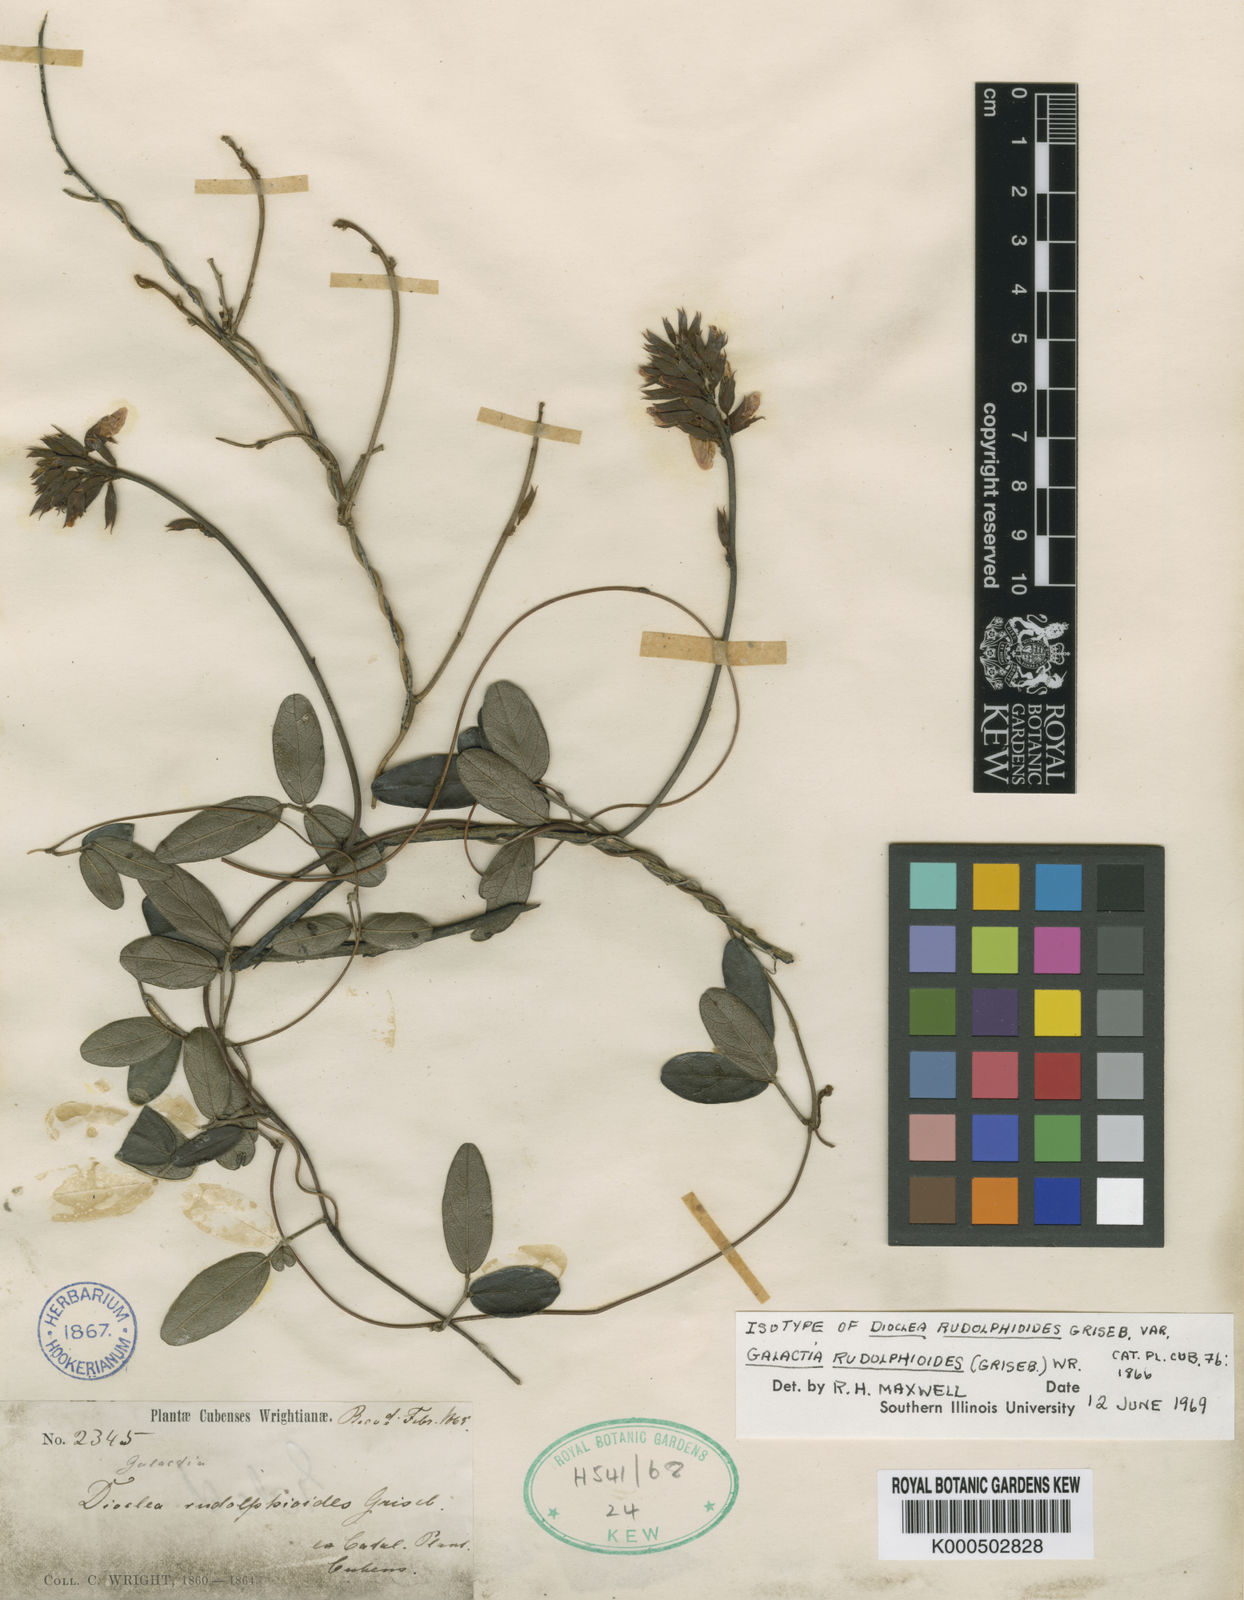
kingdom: Plantae
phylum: Tracheophyta
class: Magnoliopsida
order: Fabales
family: Fabaceae
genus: Galactia
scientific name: Galactia
